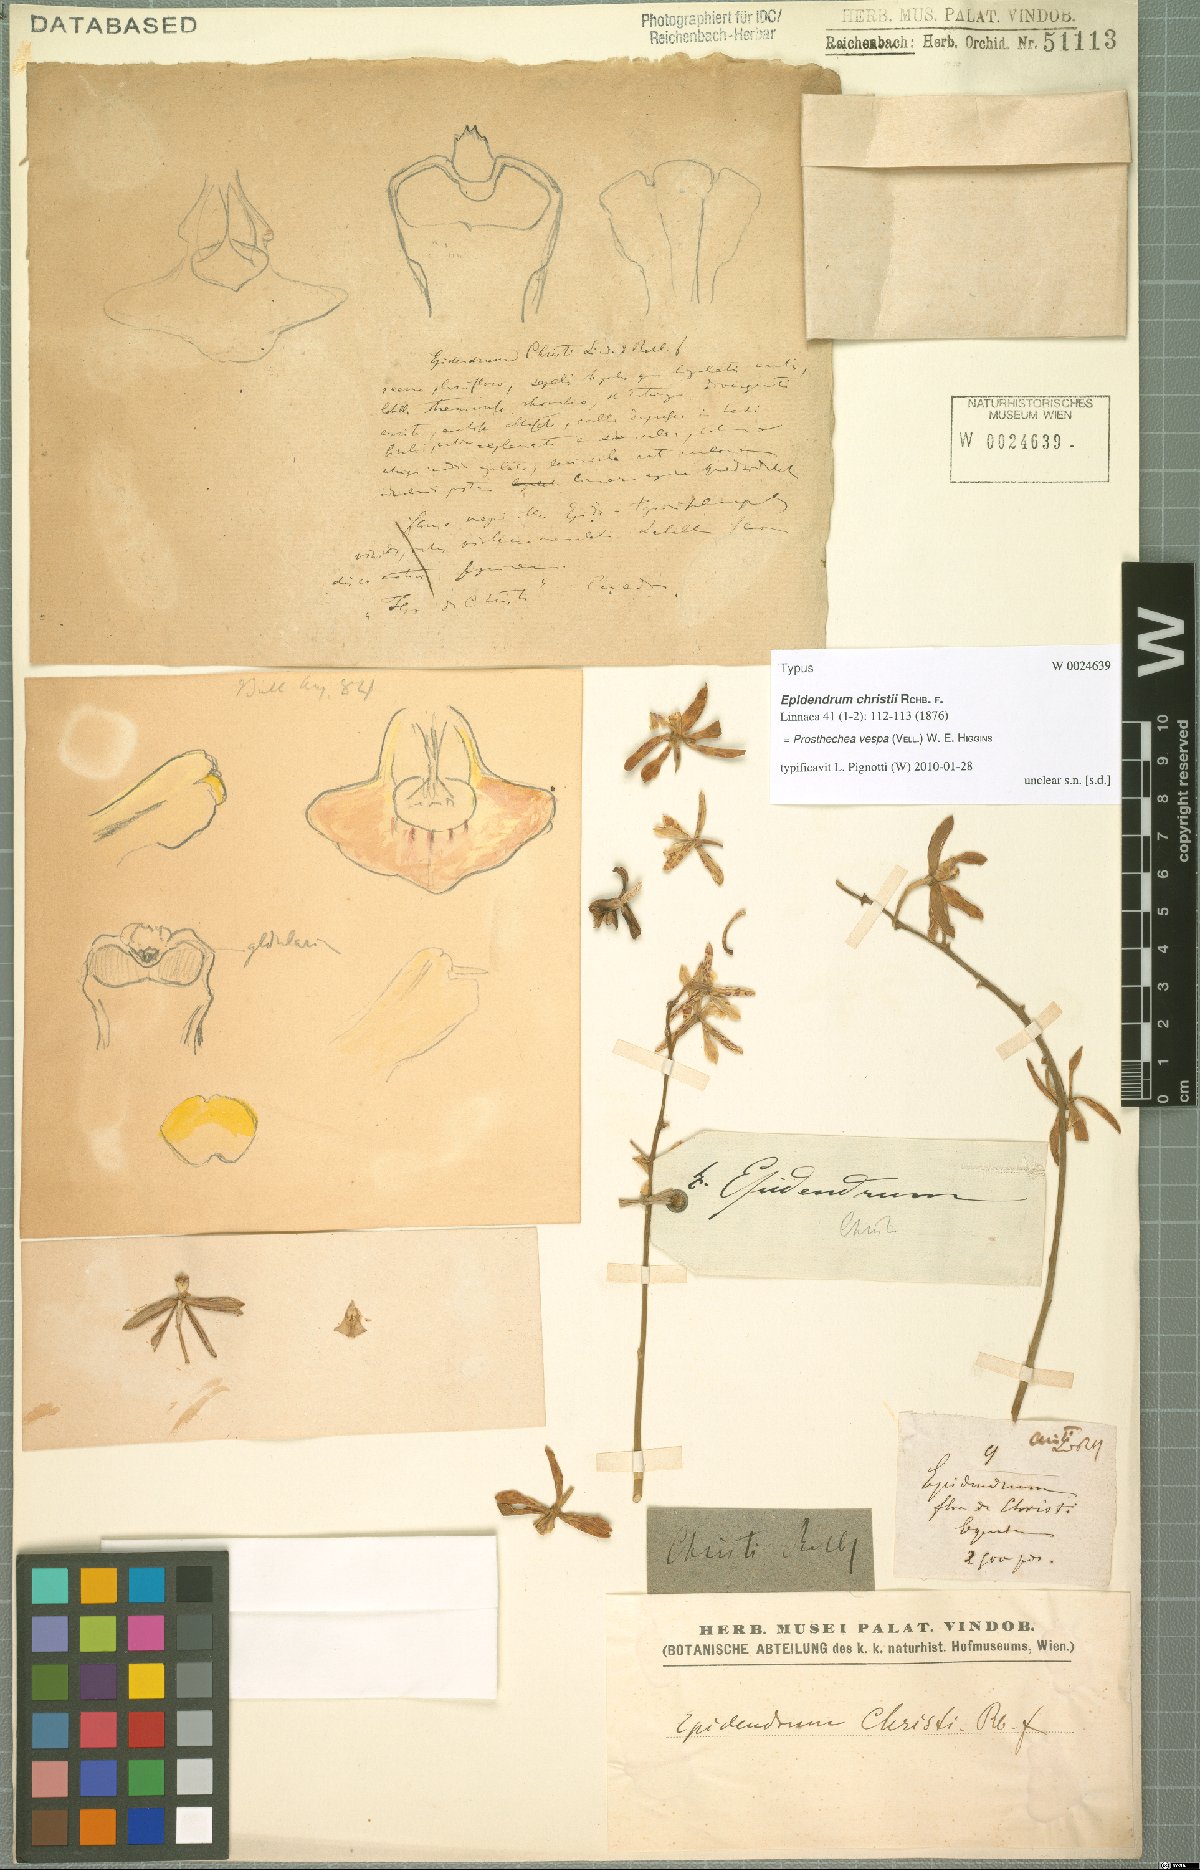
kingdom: Plantae
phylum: Tracheophyta
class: Liliopsida
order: Asparagales
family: Orchidaceae
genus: Prosthechea
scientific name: Prosthechea tigrina
